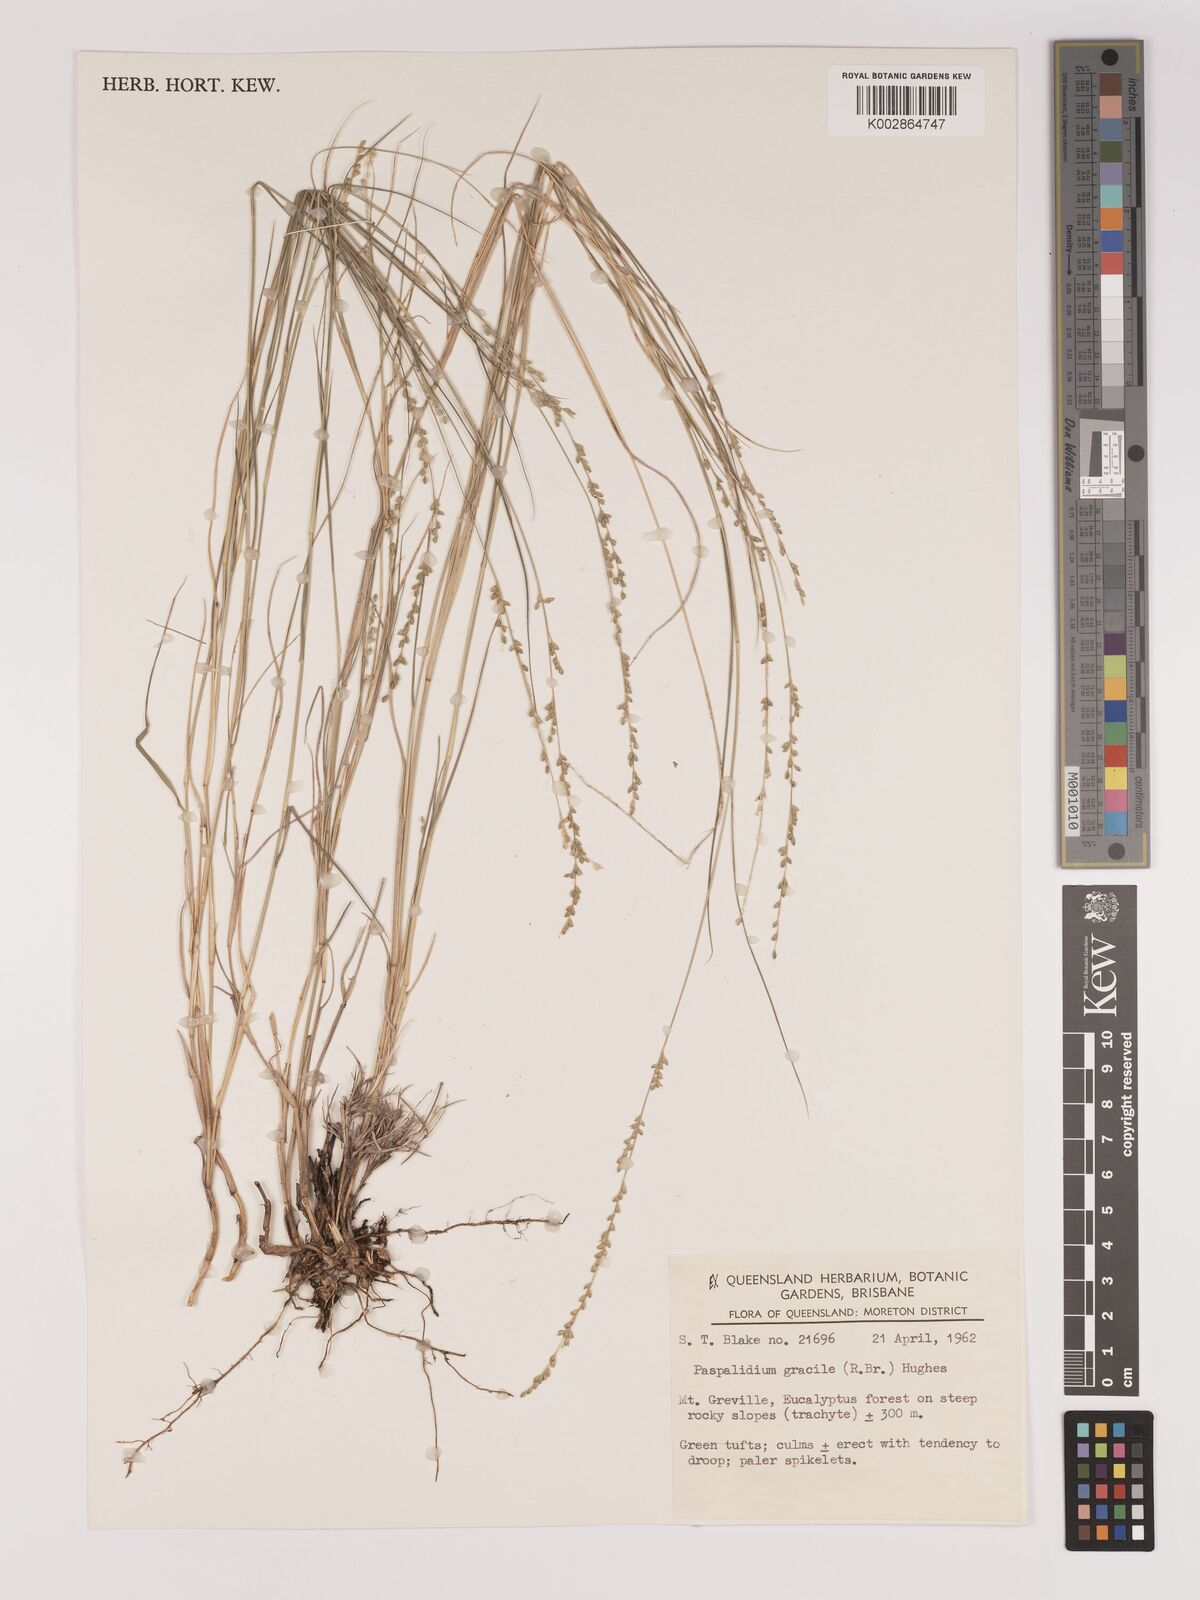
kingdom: Plantae
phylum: Tracheophyta
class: Liliopsida
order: Poales
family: Poaceae
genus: Setaria
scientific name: Setaria brownii
